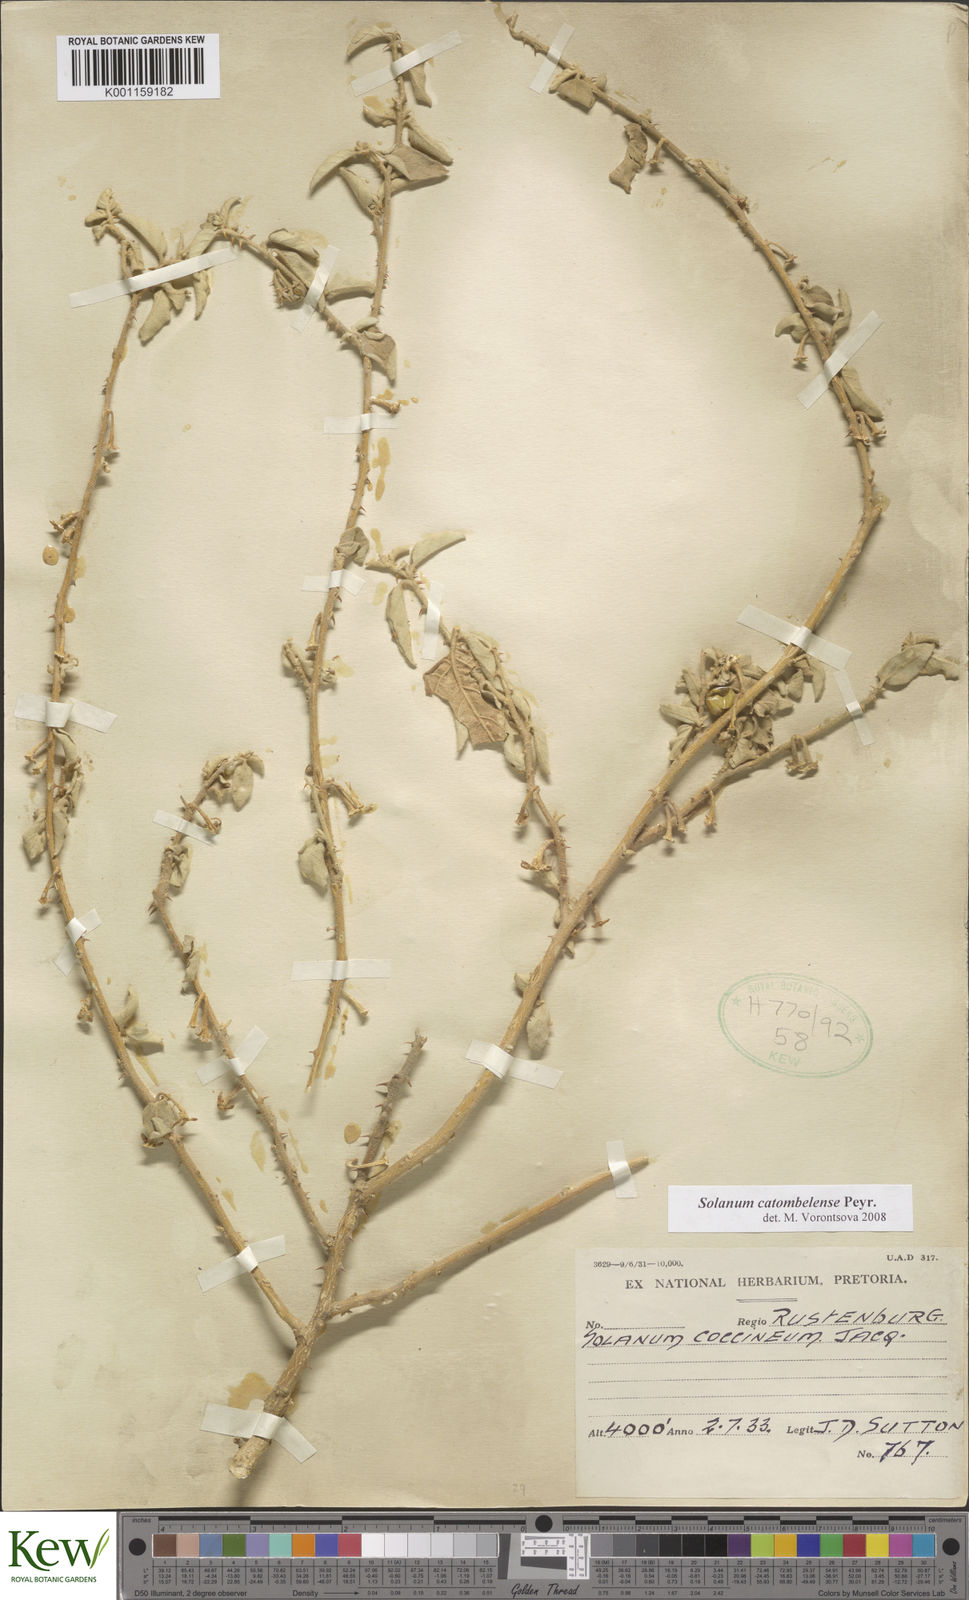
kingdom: Plantae
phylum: Tracheophyta
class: Magnoliopsida
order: Solanales
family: Solanaceae
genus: Solanum
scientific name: Solanum catombelense
